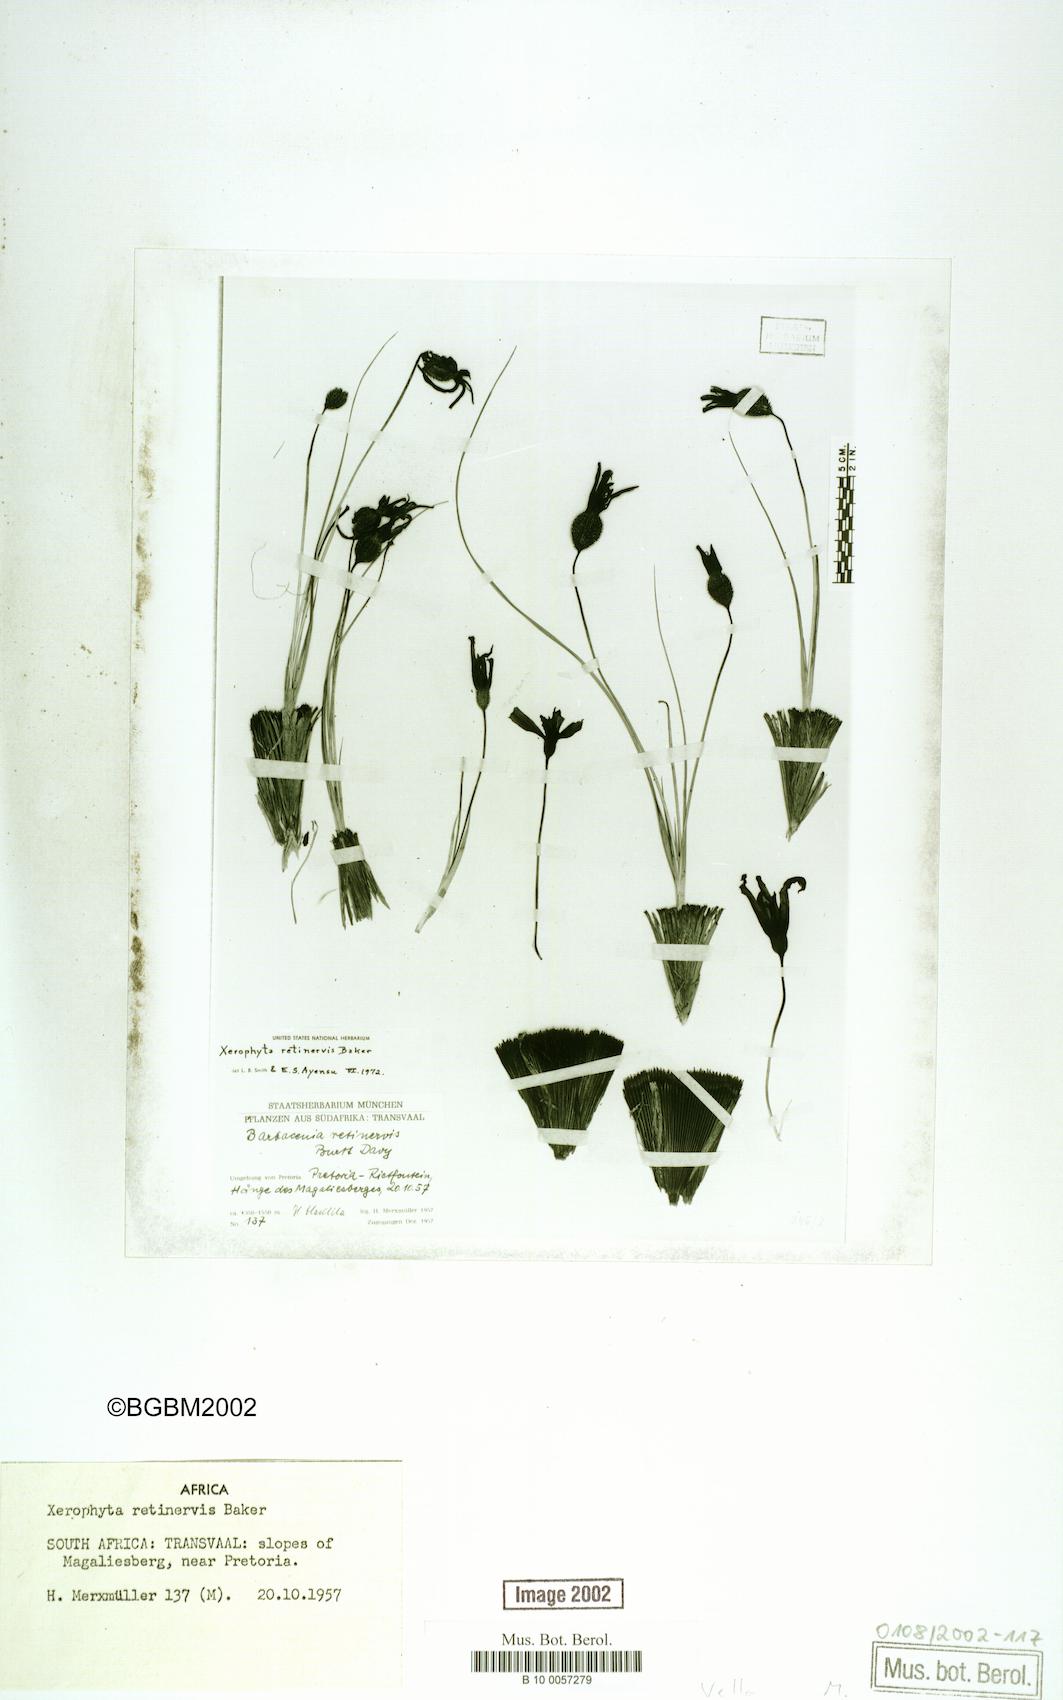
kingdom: Plantae
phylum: Tracheophyta
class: Liliopsida
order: Pandanales
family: Velloziaceae
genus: Xerophyta
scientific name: Xerophyta retinervis
